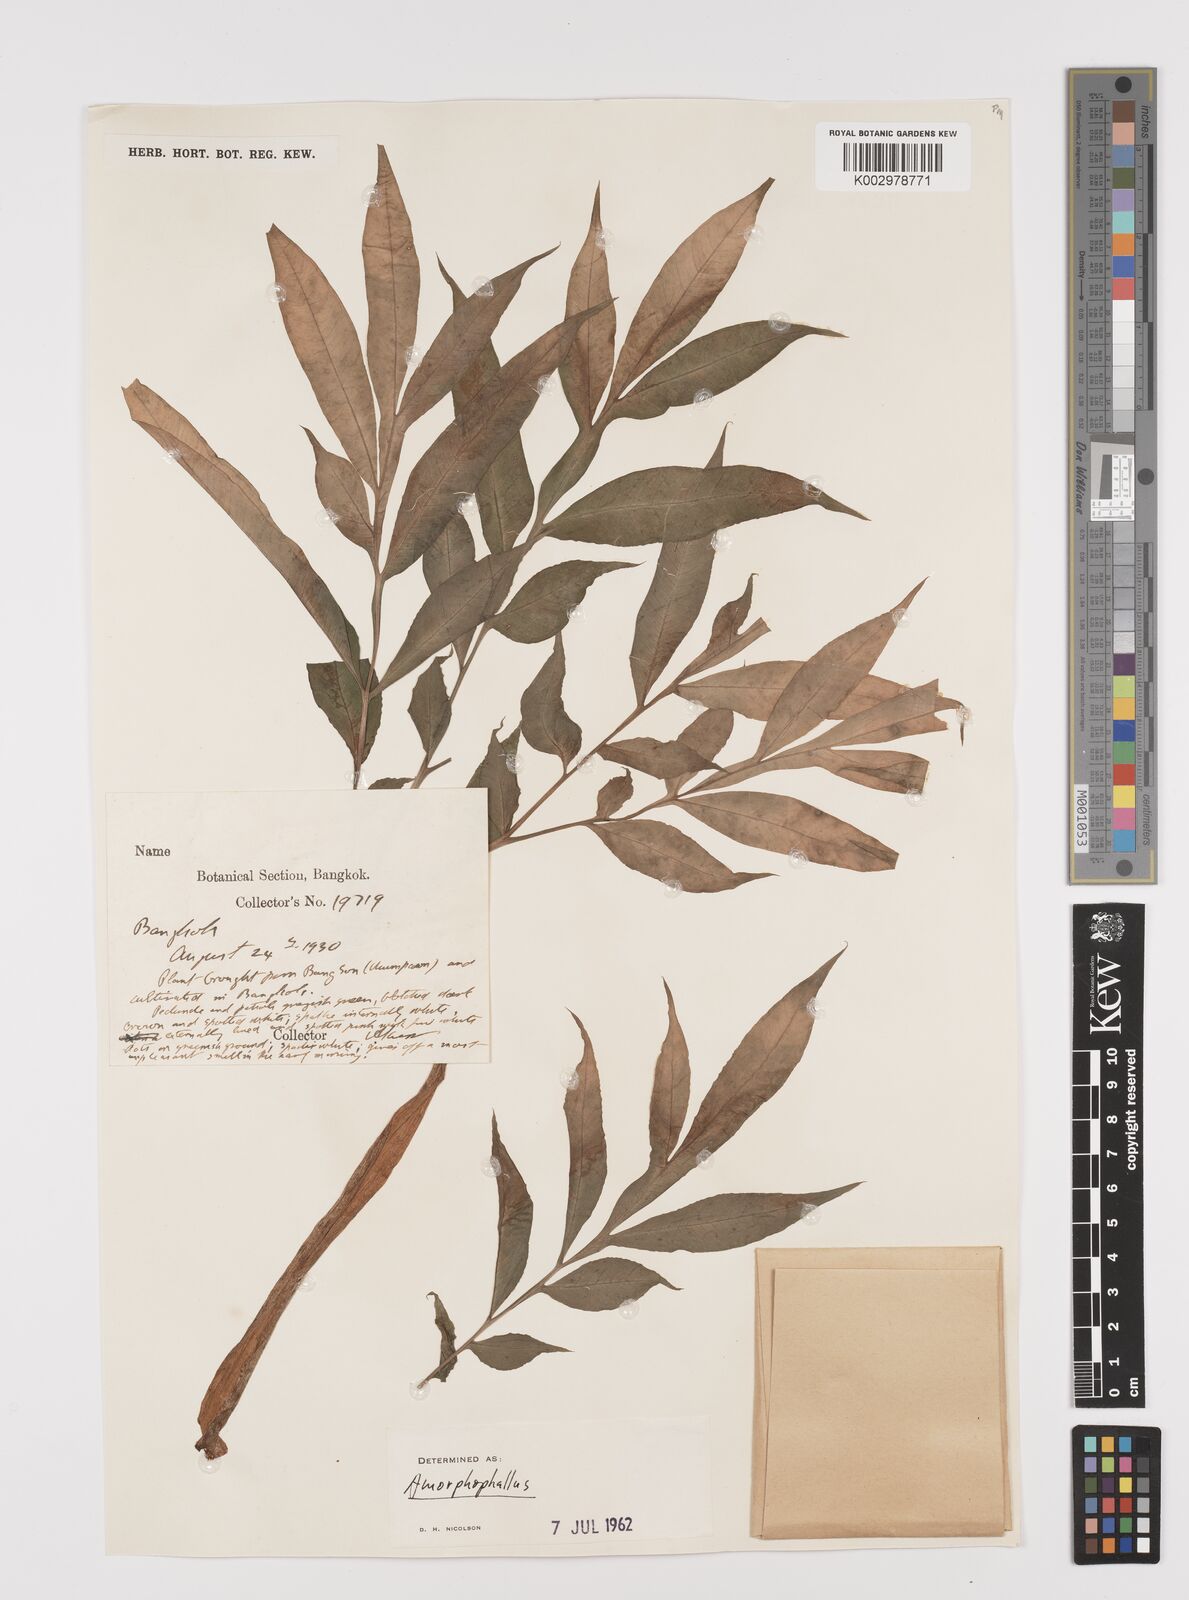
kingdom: Plantae
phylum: Tracheophyta
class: Liliopsida
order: Alismatales
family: Araceae
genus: Amorphophallus
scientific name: Amorphophallus
